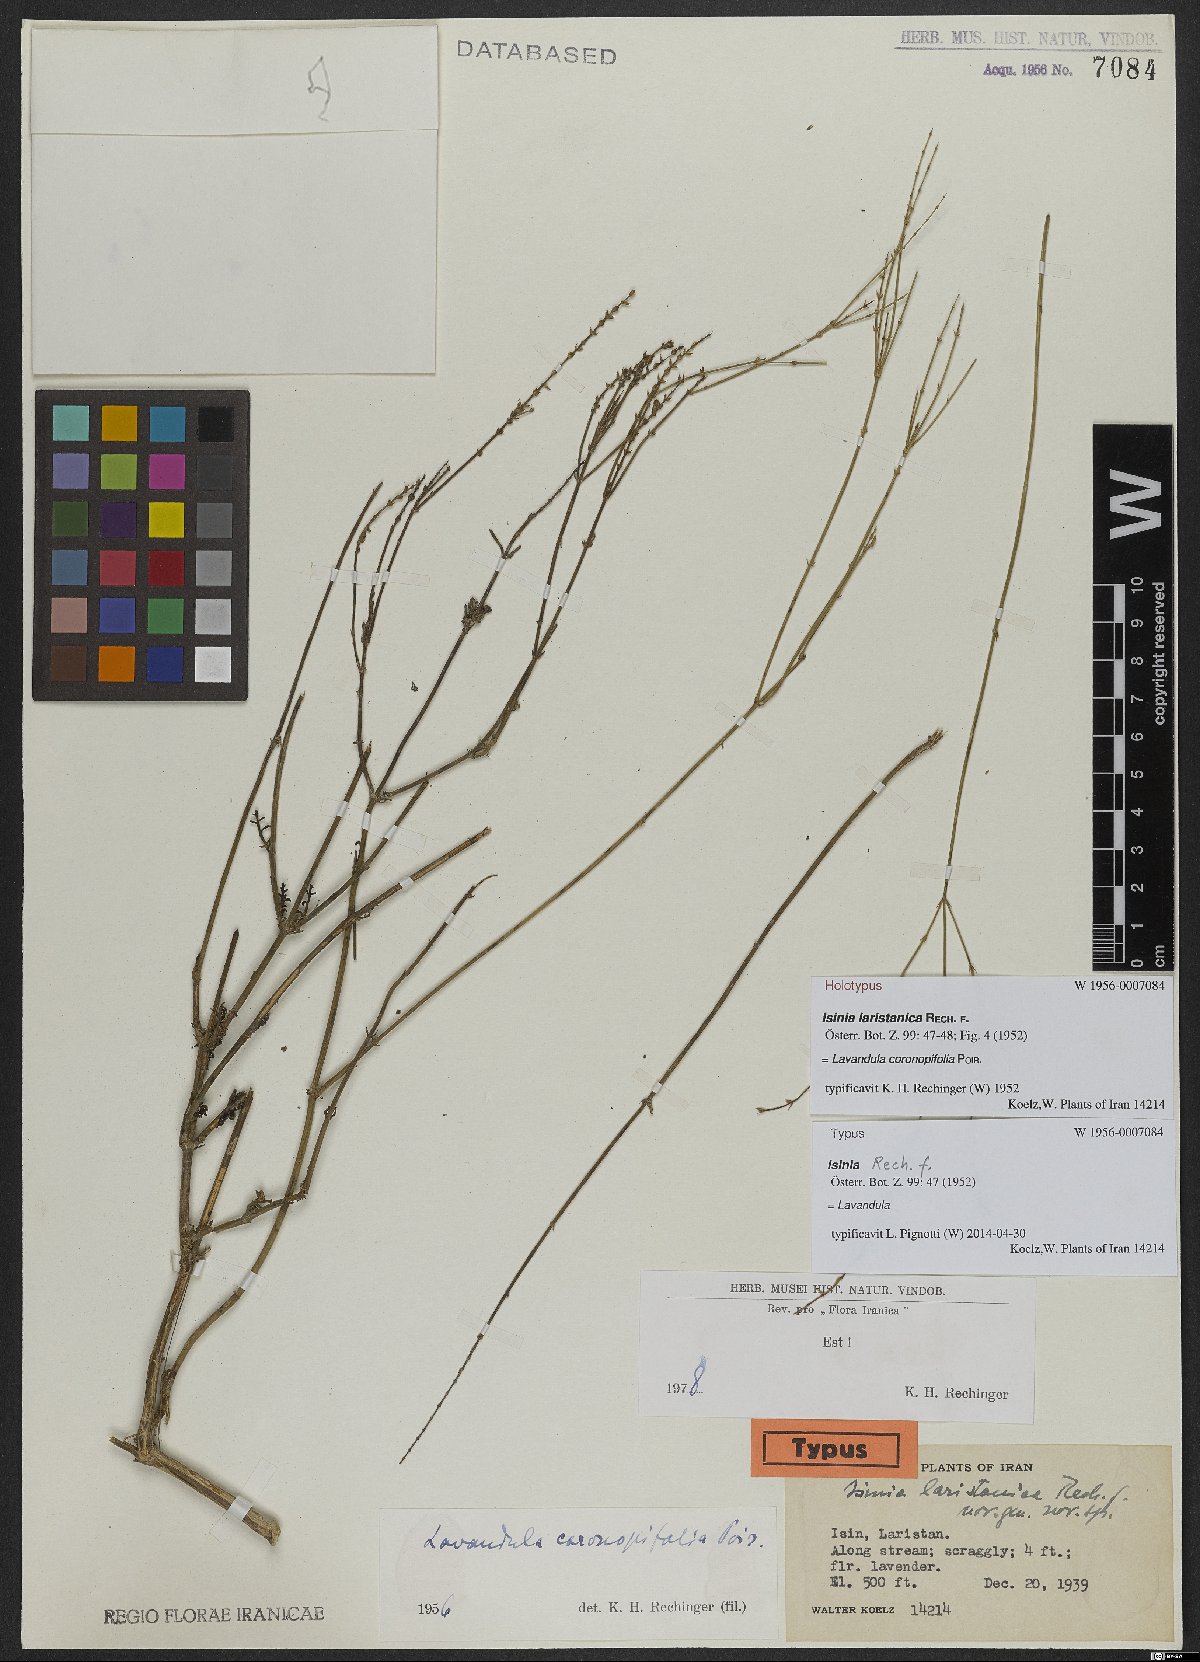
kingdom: Plantae
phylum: Tracheophyta
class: Magnoliopsida
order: Lamiales
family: Lamiaceae
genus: Lavandula
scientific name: Lavandula coronopifolia
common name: Stagshorn lavender
